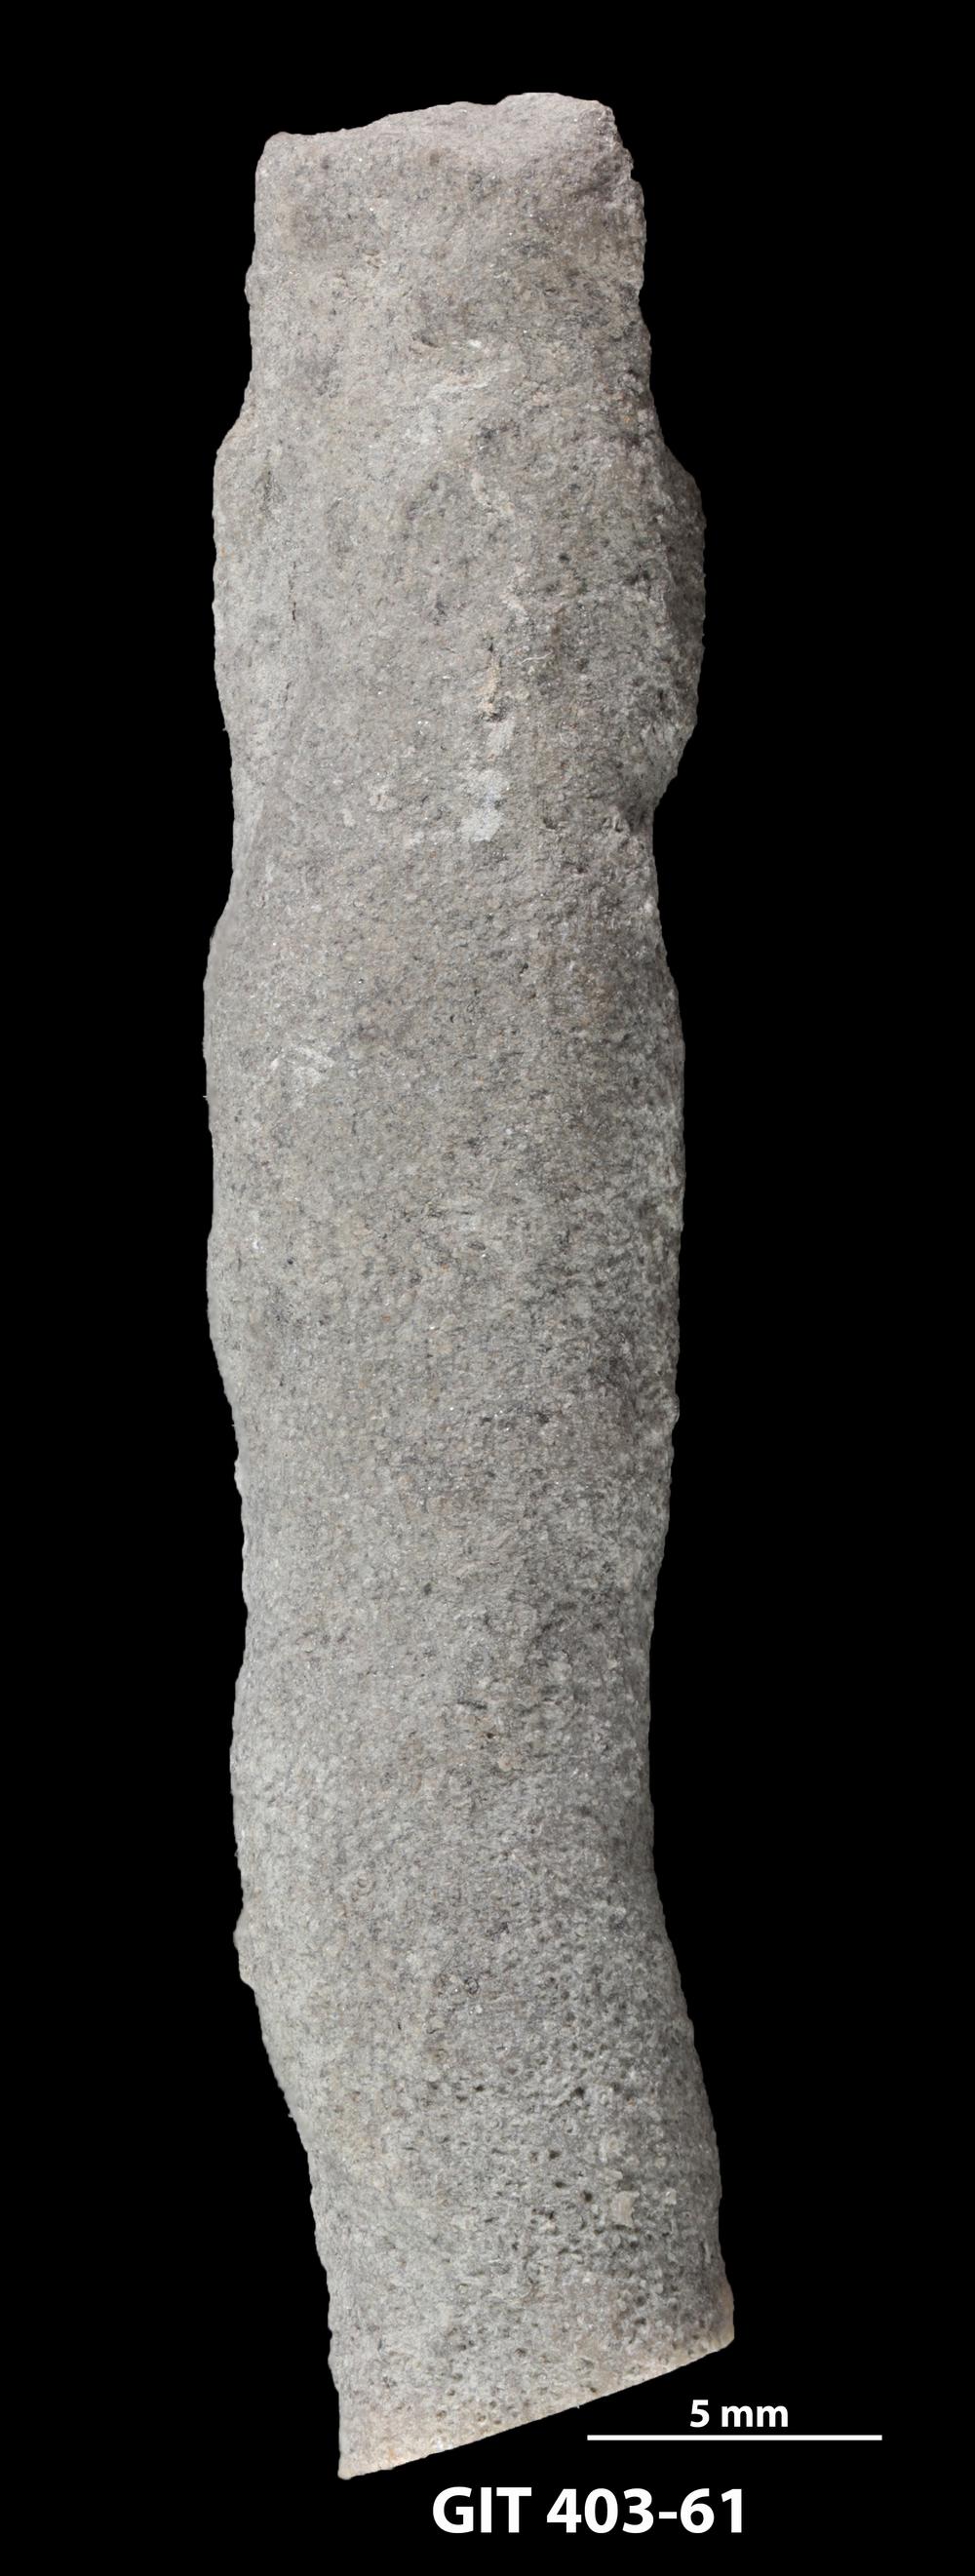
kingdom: Animalia
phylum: Bryozoa
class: Stenolaemata
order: Cystoporida
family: Fistuliporidae
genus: Fistulipora
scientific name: Fistulipora przhidolensis
